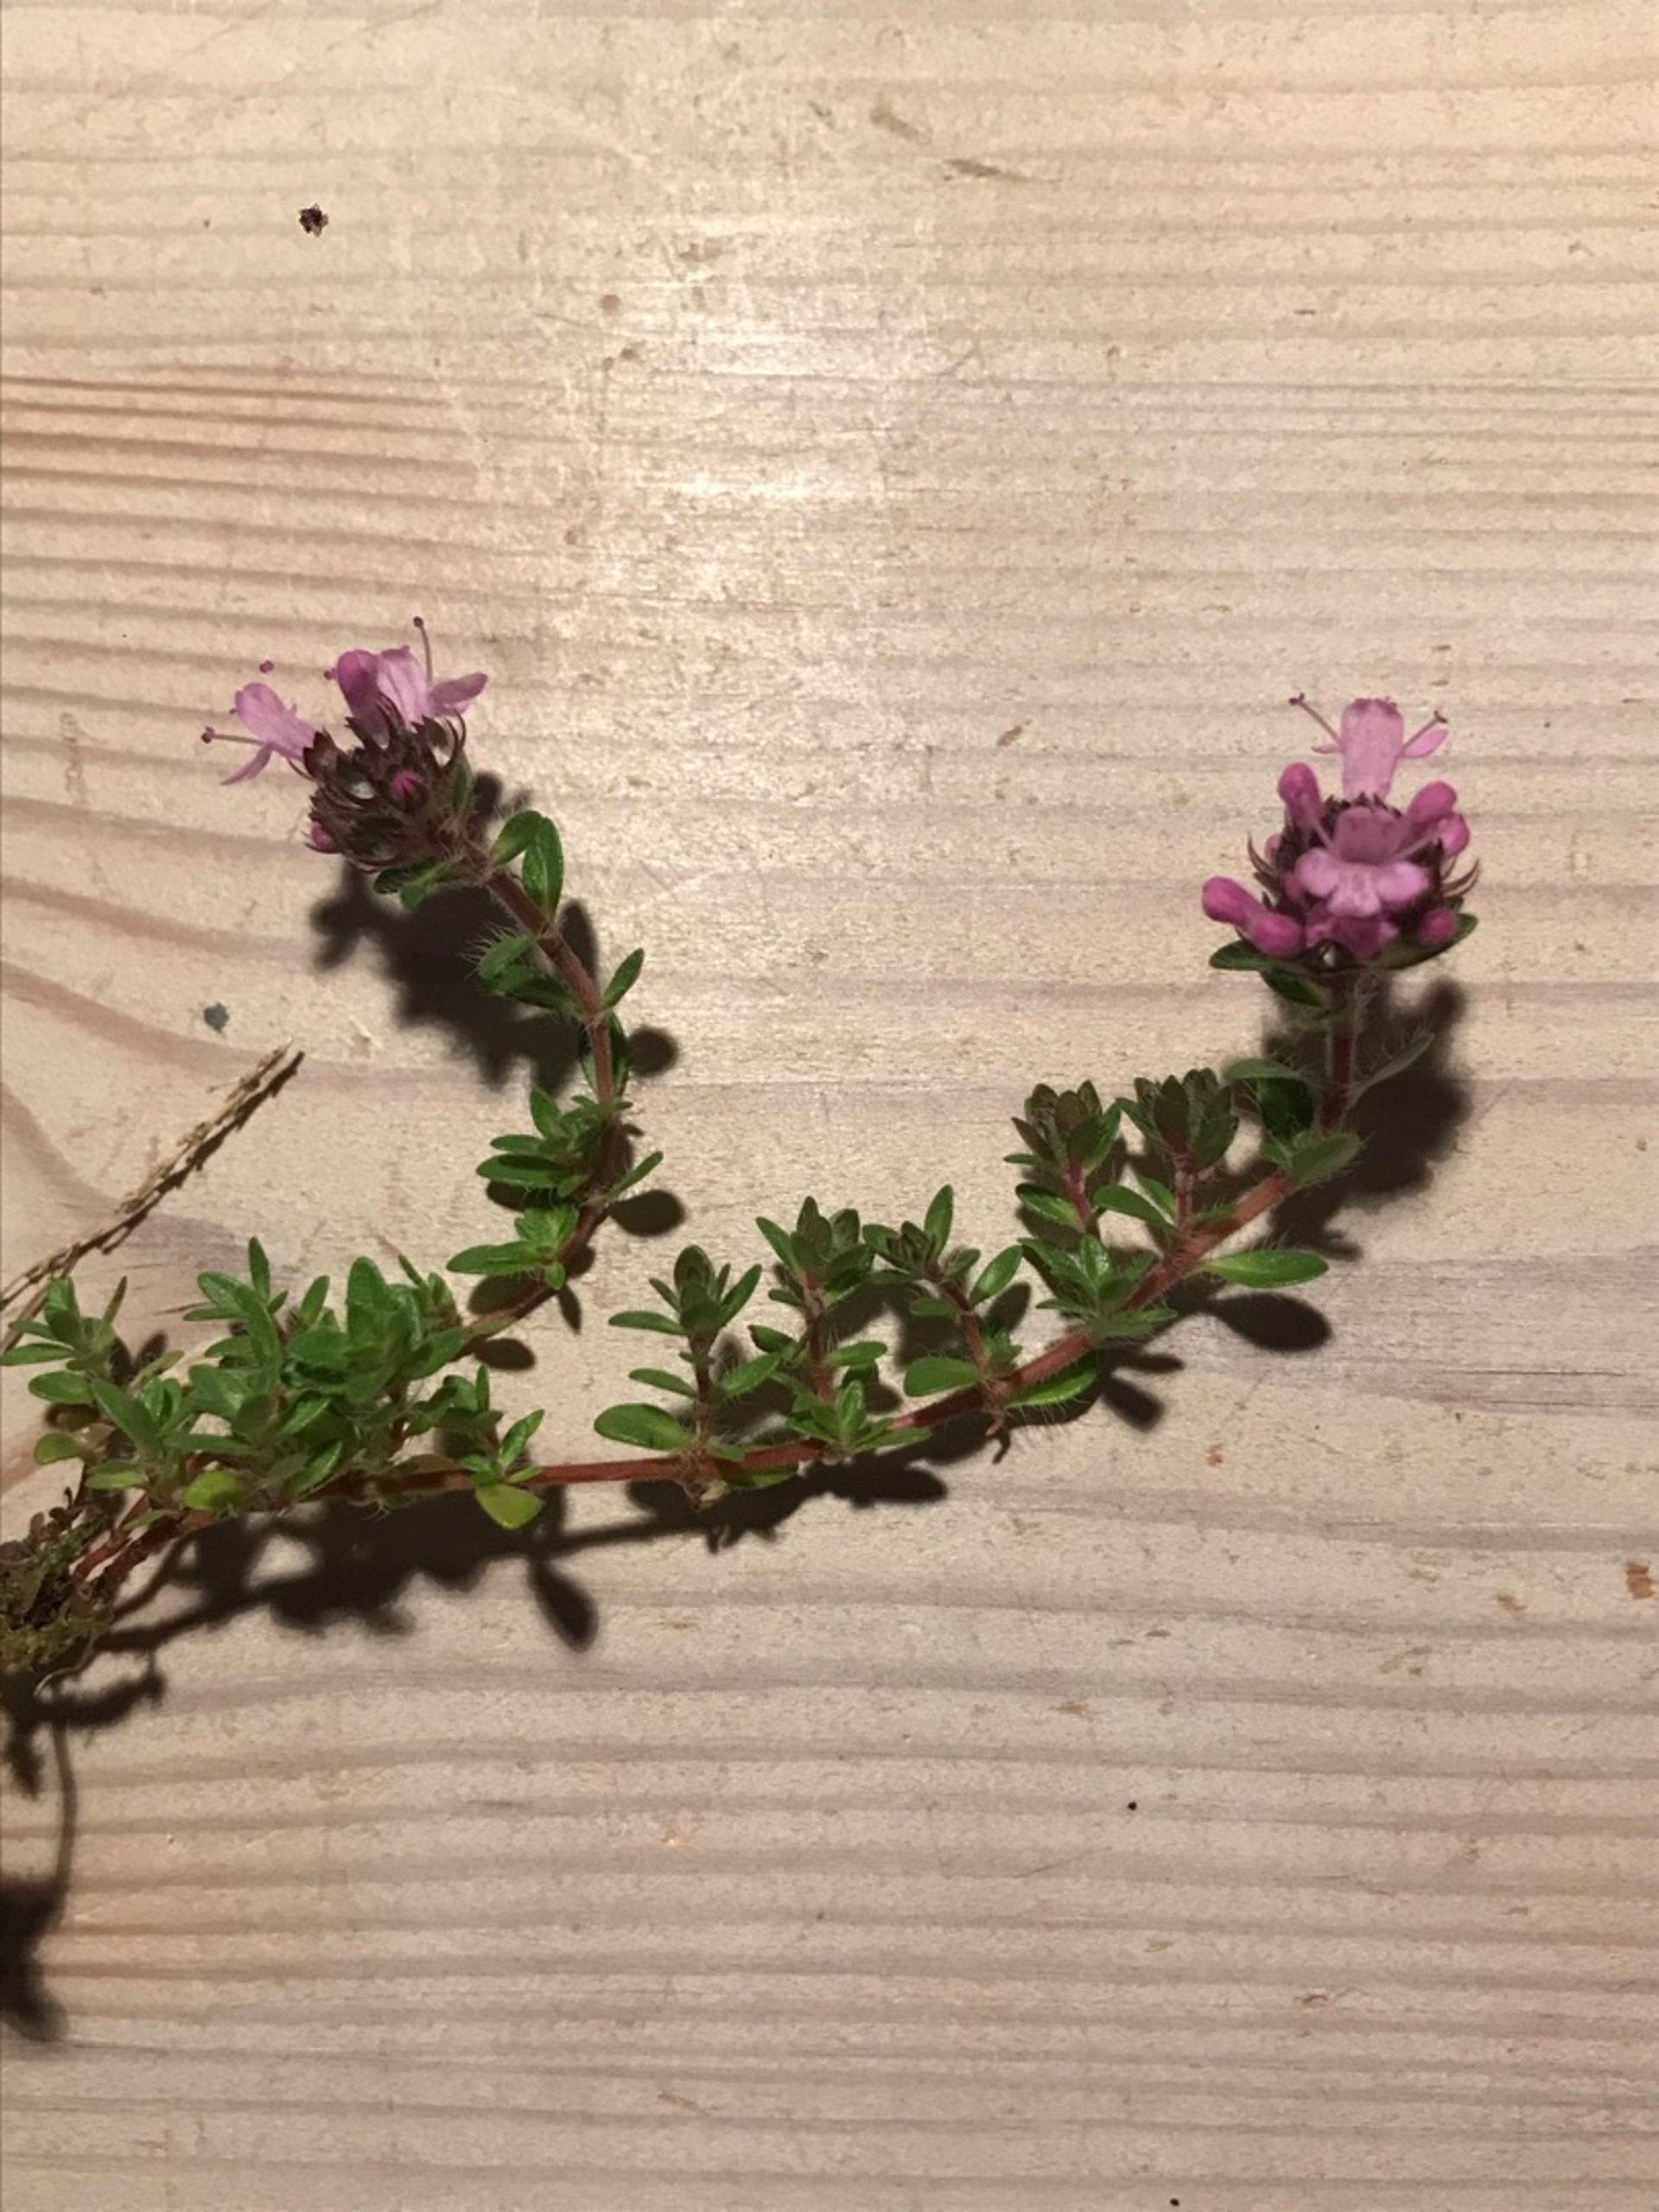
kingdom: Plantae
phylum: Tracheophyta
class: Magnoliopsida
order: Lamiales
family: Lamiaceae
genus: Thymus
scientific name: Thymus serpyllum
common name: Smalbladet timian
